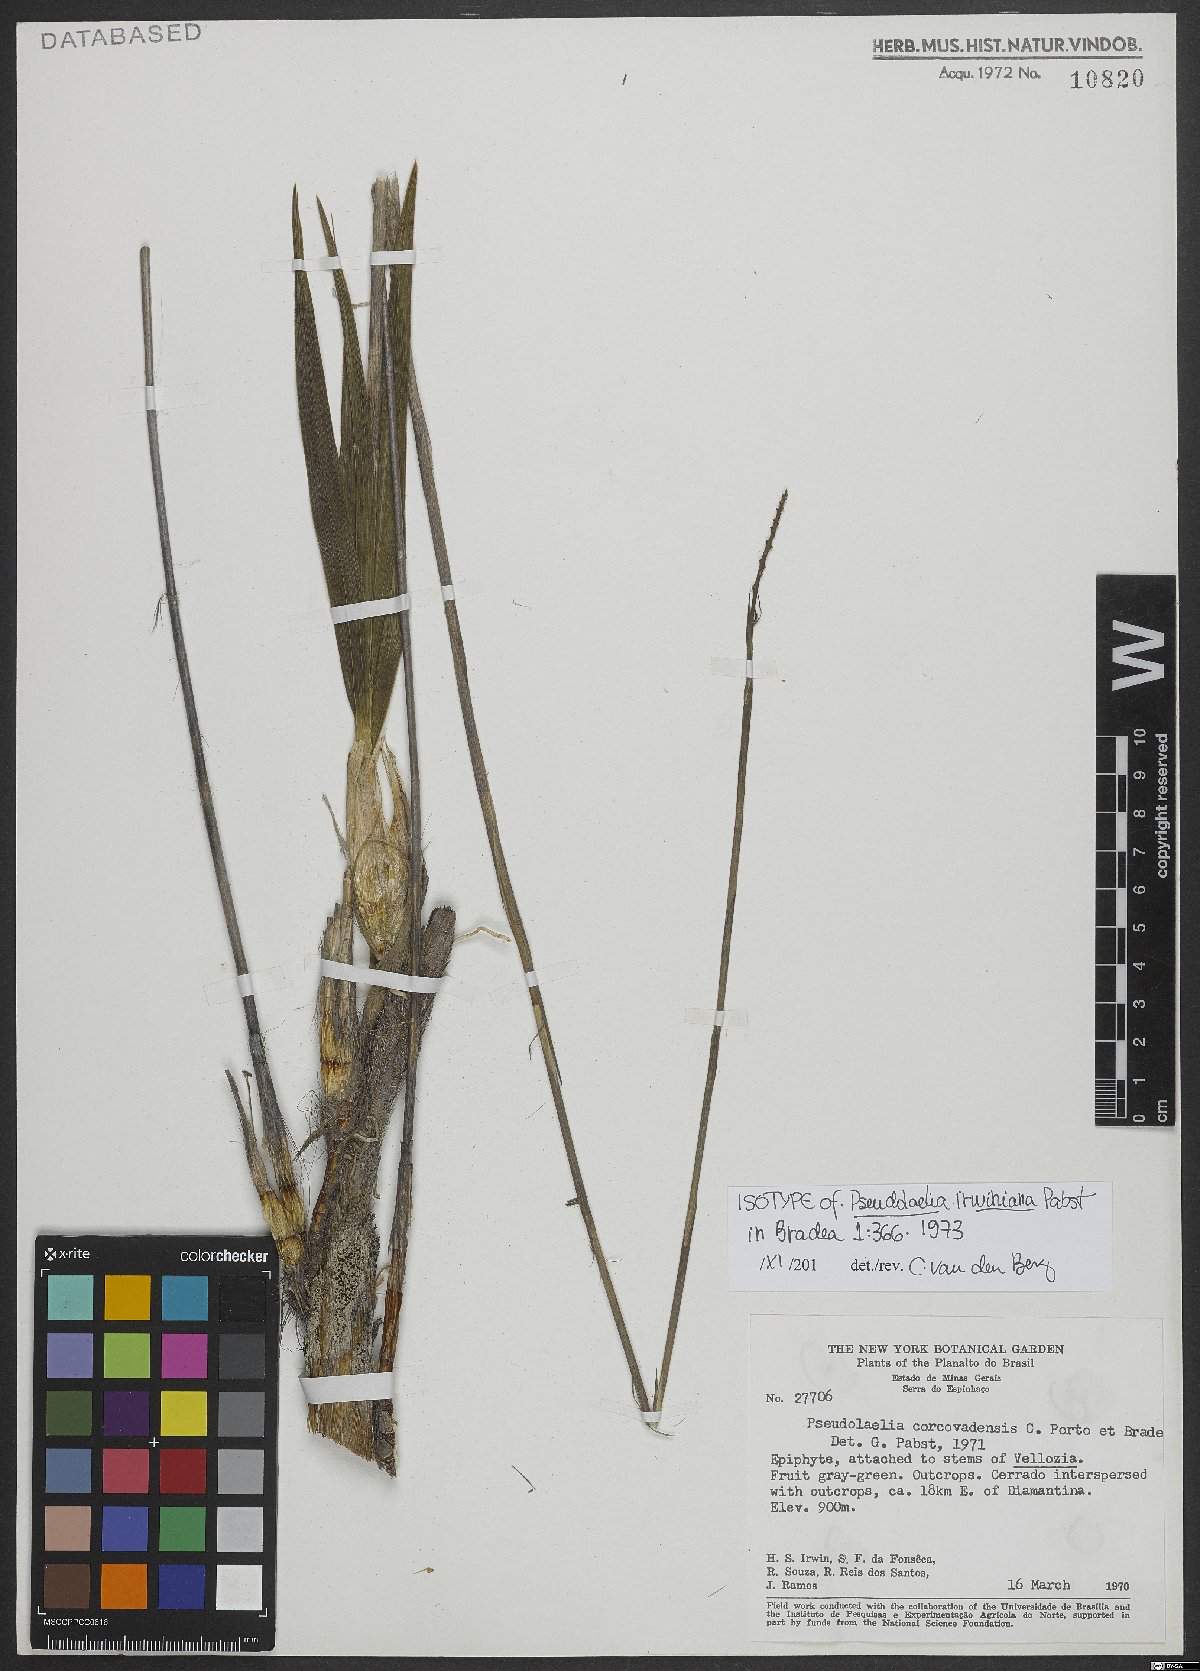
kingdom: Plantae
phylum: Tracheophyta
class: Liliopsida
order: Asparagales
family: Orchidaceae
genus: Pseudolaelia
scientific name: Pseudolaelia irwiniana
